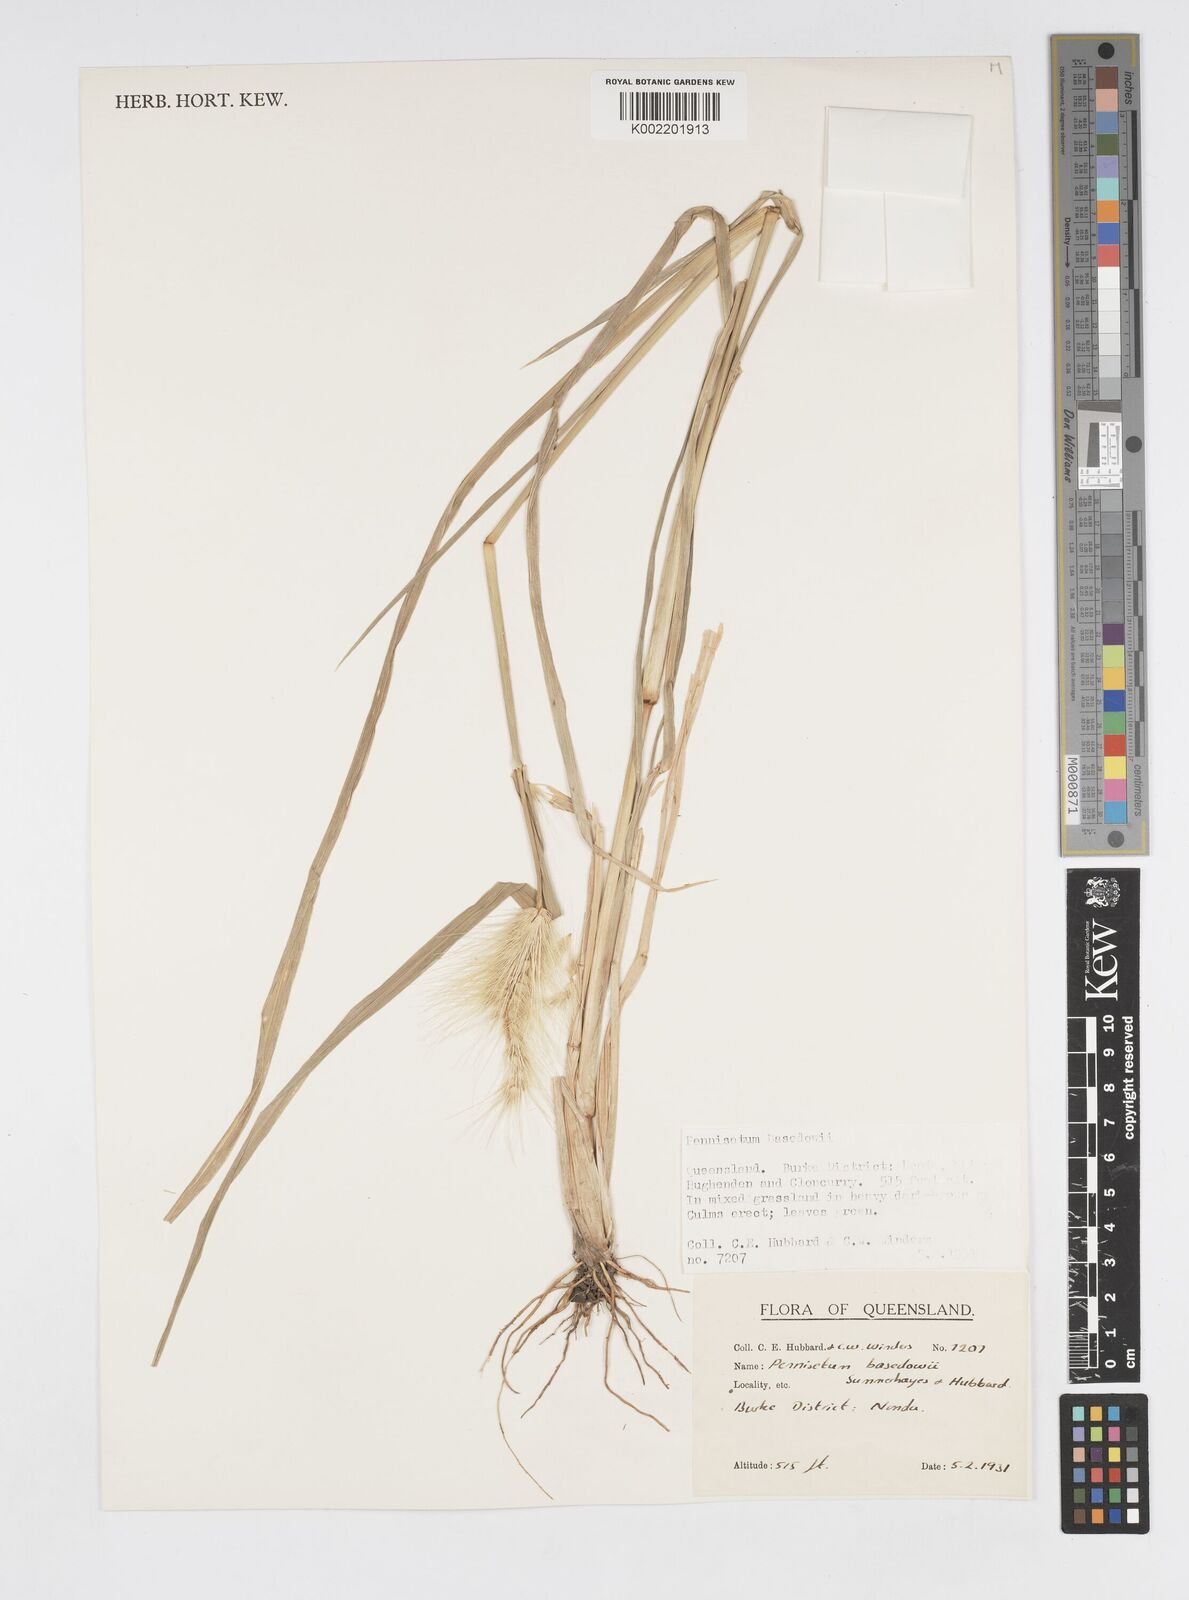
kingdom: Plantae
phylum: Tracheophyta
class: Liliopsida
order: Poales
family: Poaceae
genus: Cenchrus
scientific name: Cenchrus basedowii
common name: Asbestos grass
